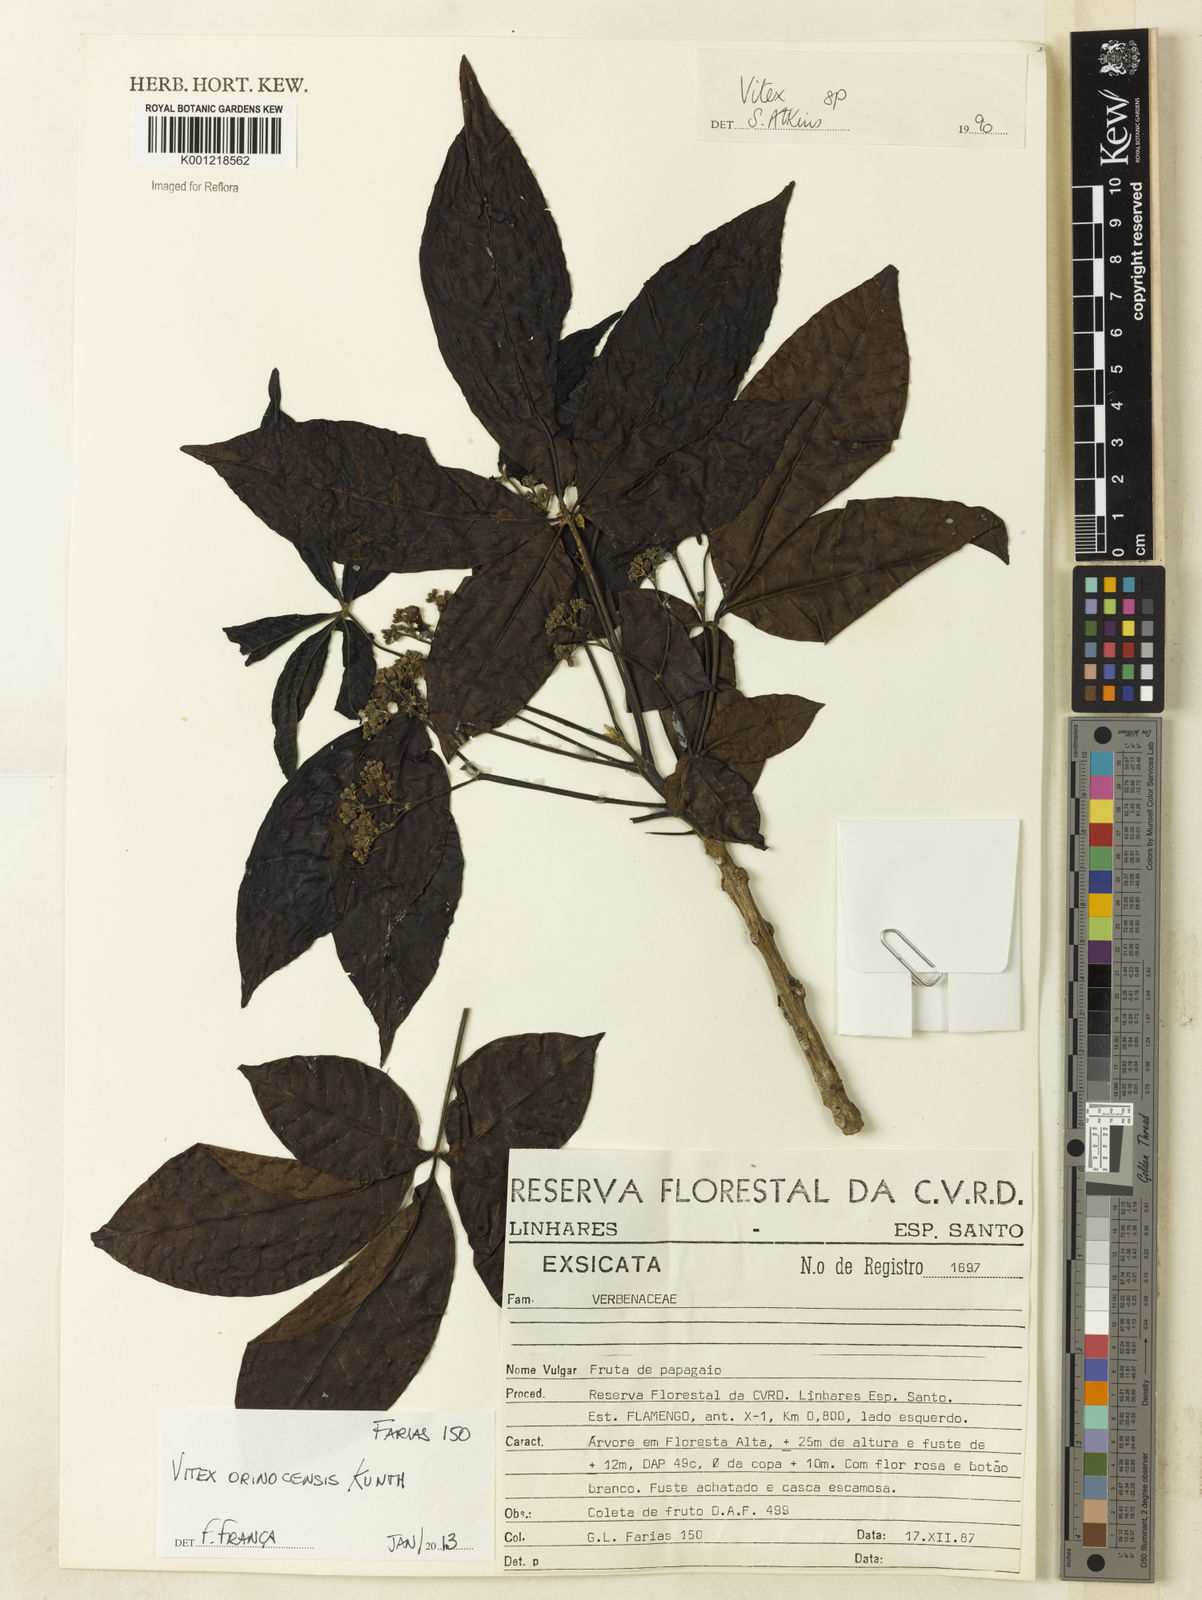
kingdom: Plantae
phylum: Tracheophyta
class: Magnoliopsida
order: Lamiales
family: Lamiaceae
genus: Vitex
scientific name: Vitex orinocensis
